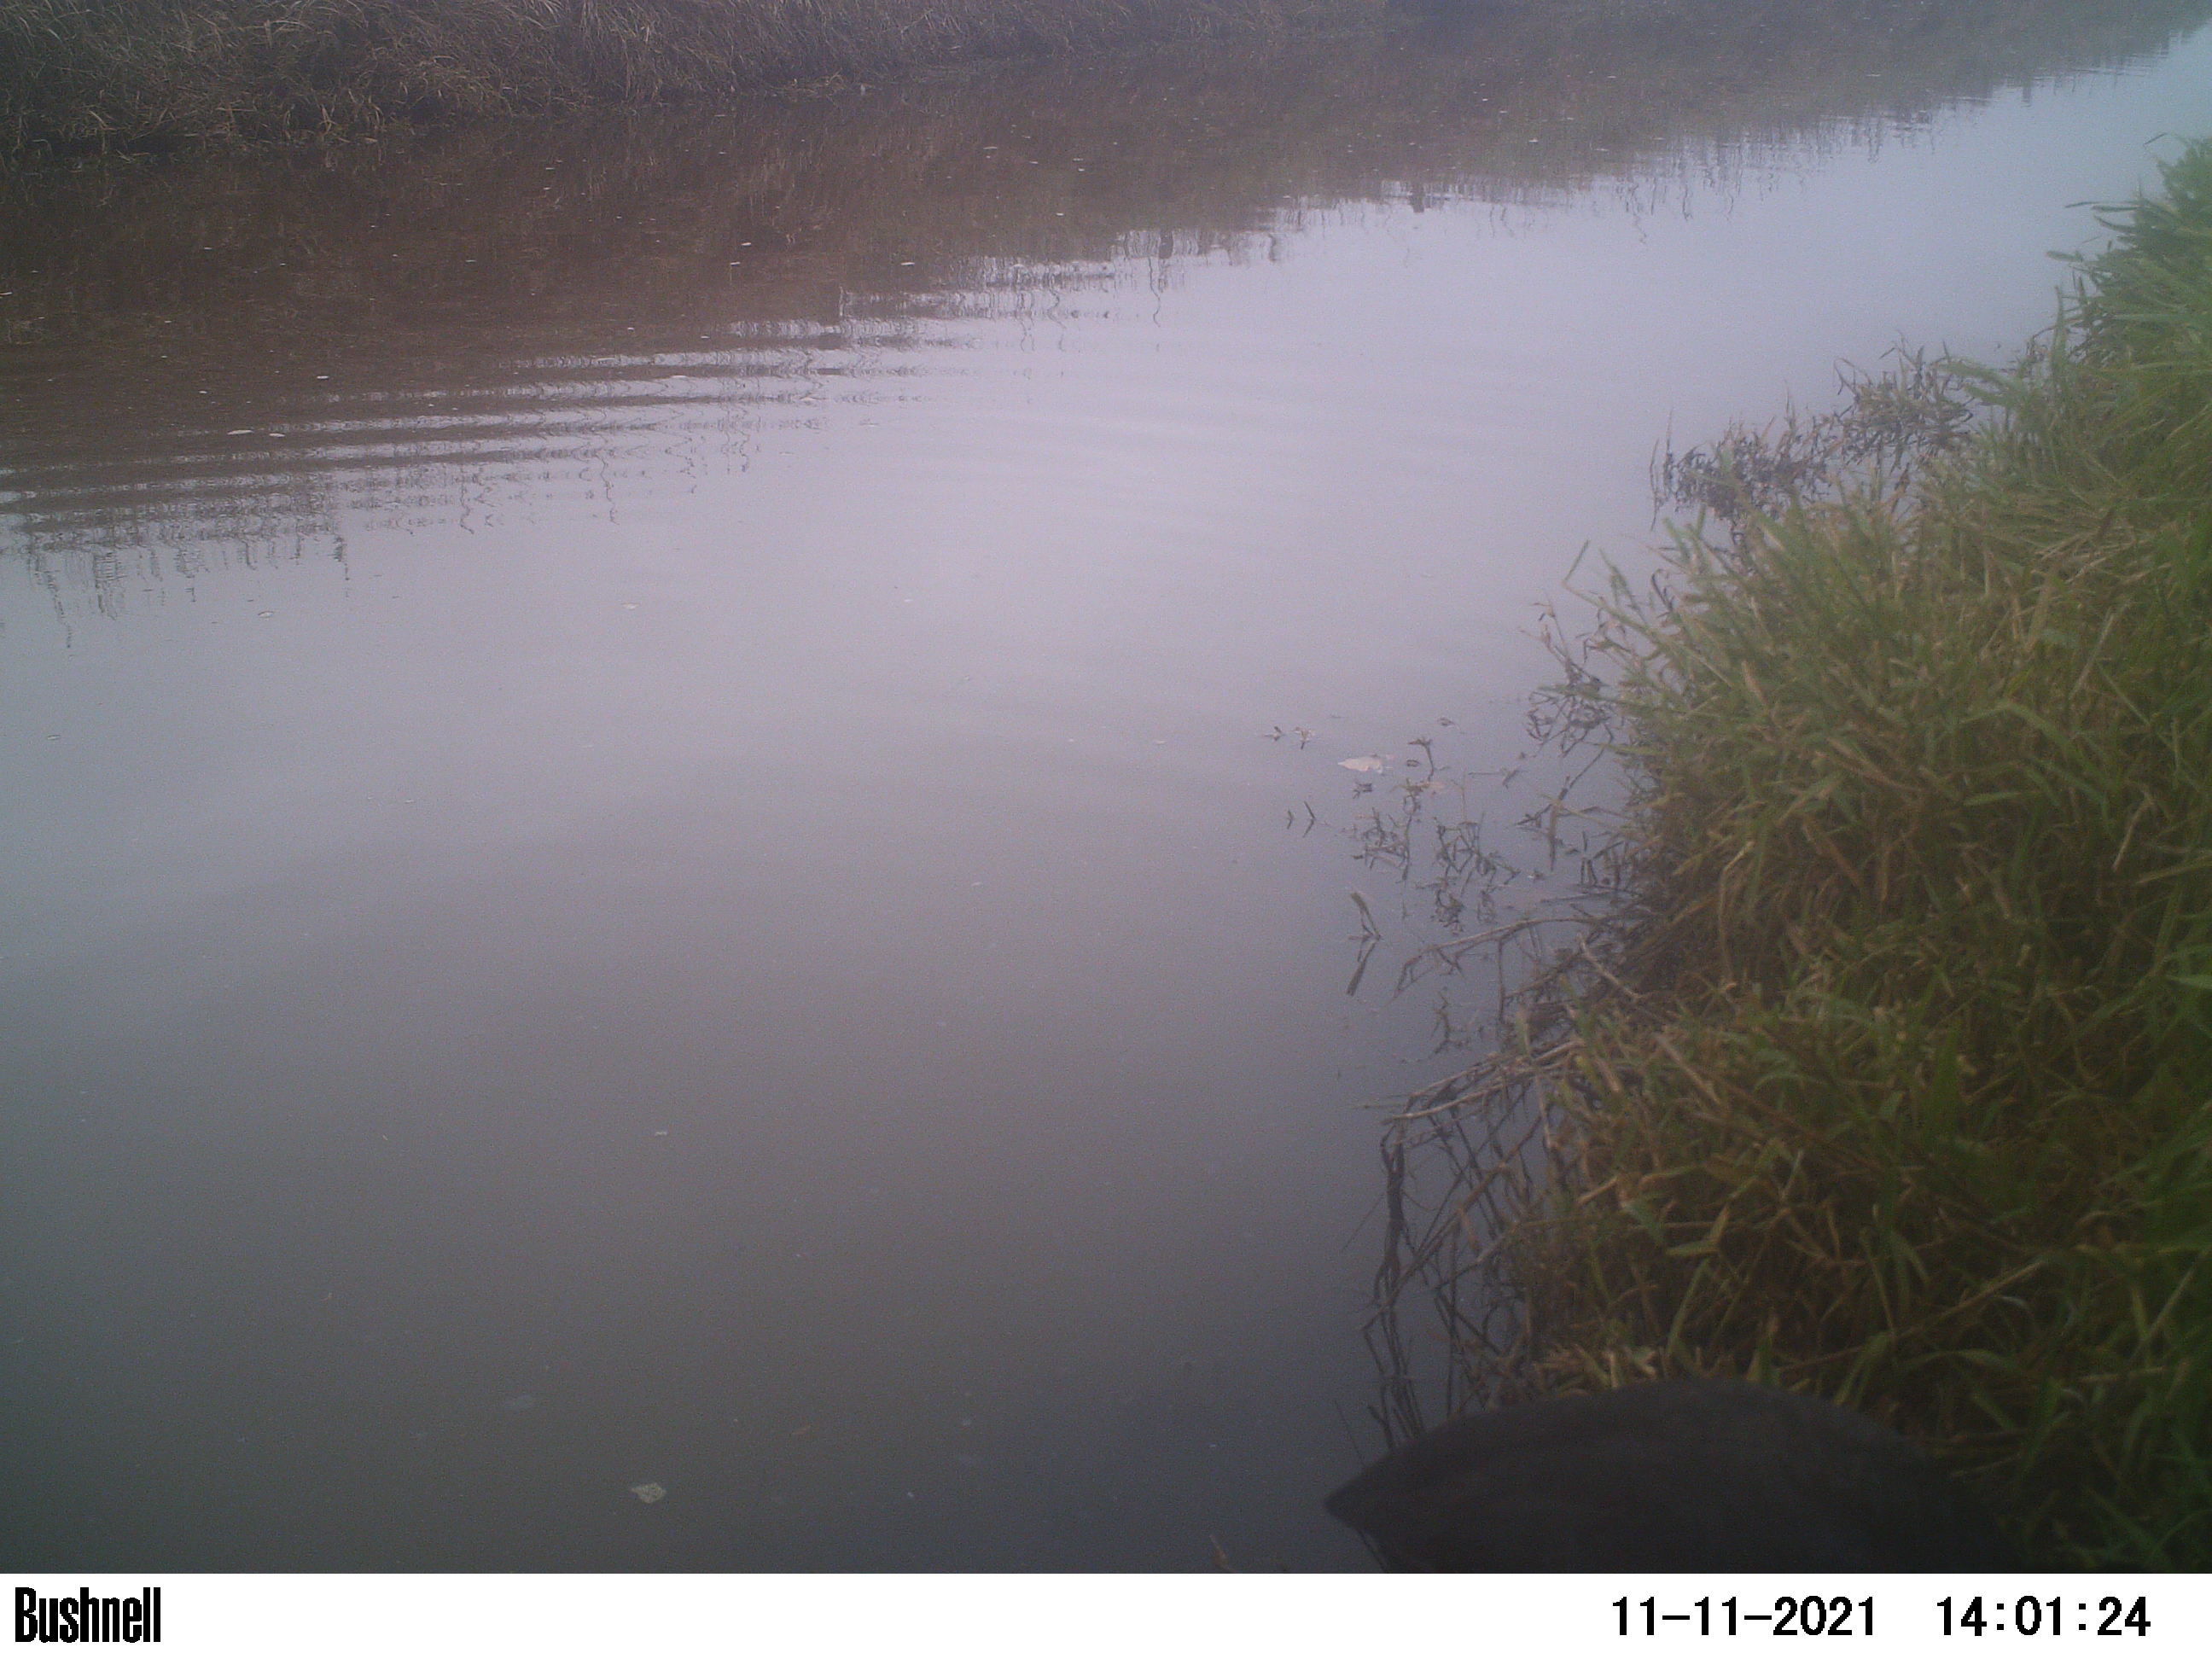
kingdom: Animalia
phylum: Chordata
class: Aves
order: Gruiformes
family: Rallidae
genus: Fulica
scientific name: Fulica atra
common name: Eurasian coot
